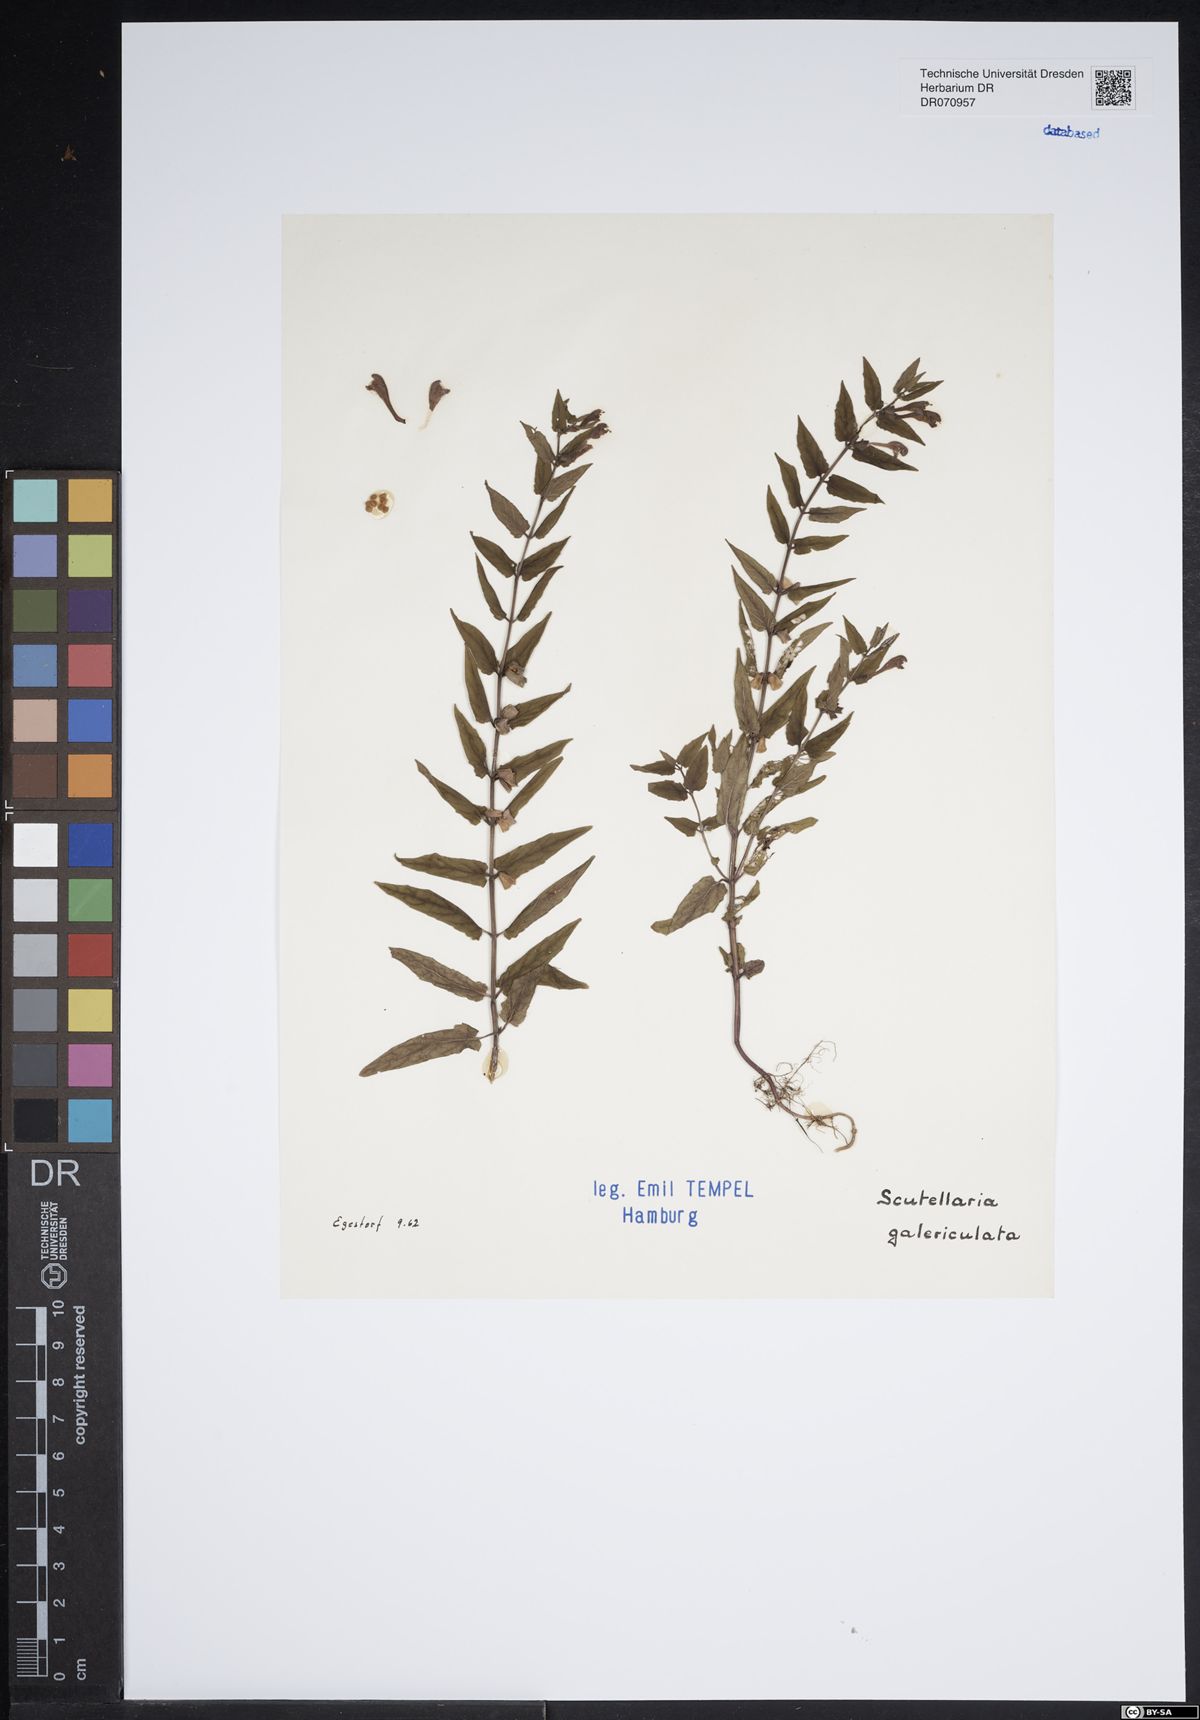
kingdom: Plantae
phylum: Tracheophyta
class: Magnoliopsida
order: Lamiales
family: Lamiaceae
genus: Scutellaria
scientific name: Scutellaria galericulata
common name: Skullcap
